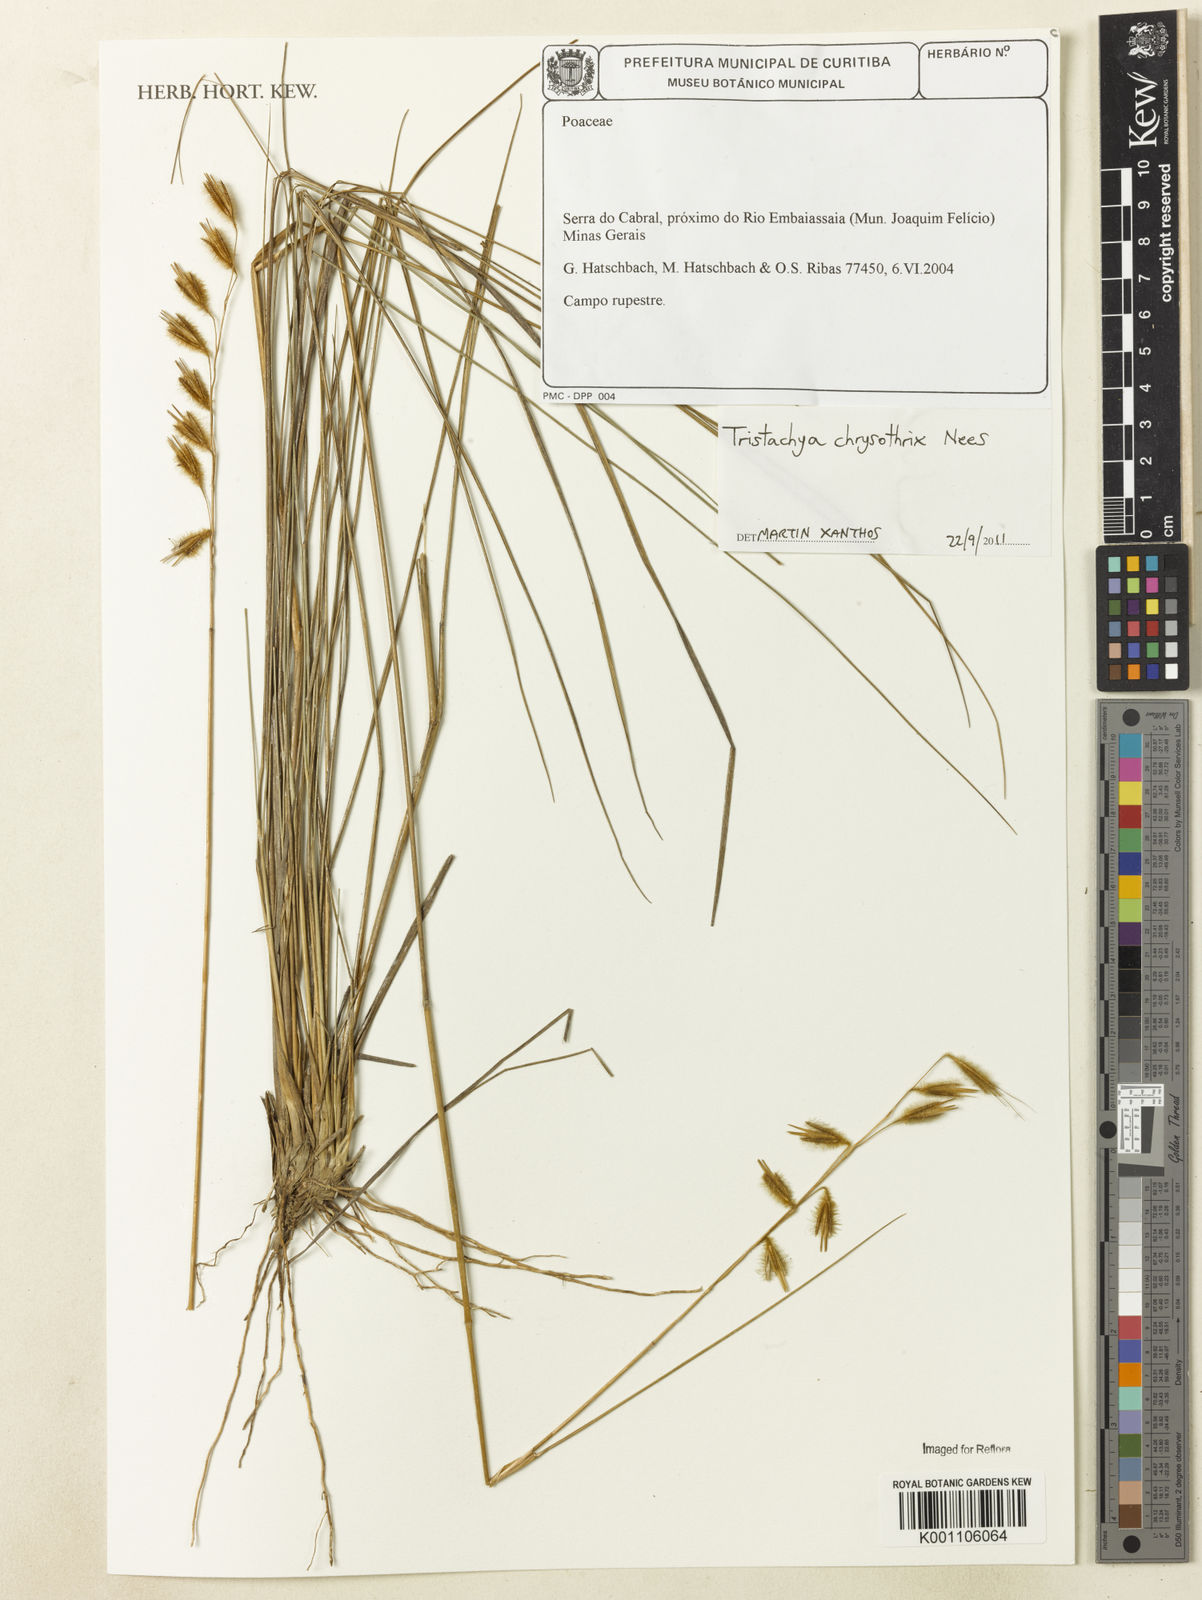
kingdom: Plantae
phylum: Tracheophyta
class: Liliopsida
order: Poales
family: Poaceae
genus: Loudetiopsis
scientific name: Loudetiopsis chrysothrix
